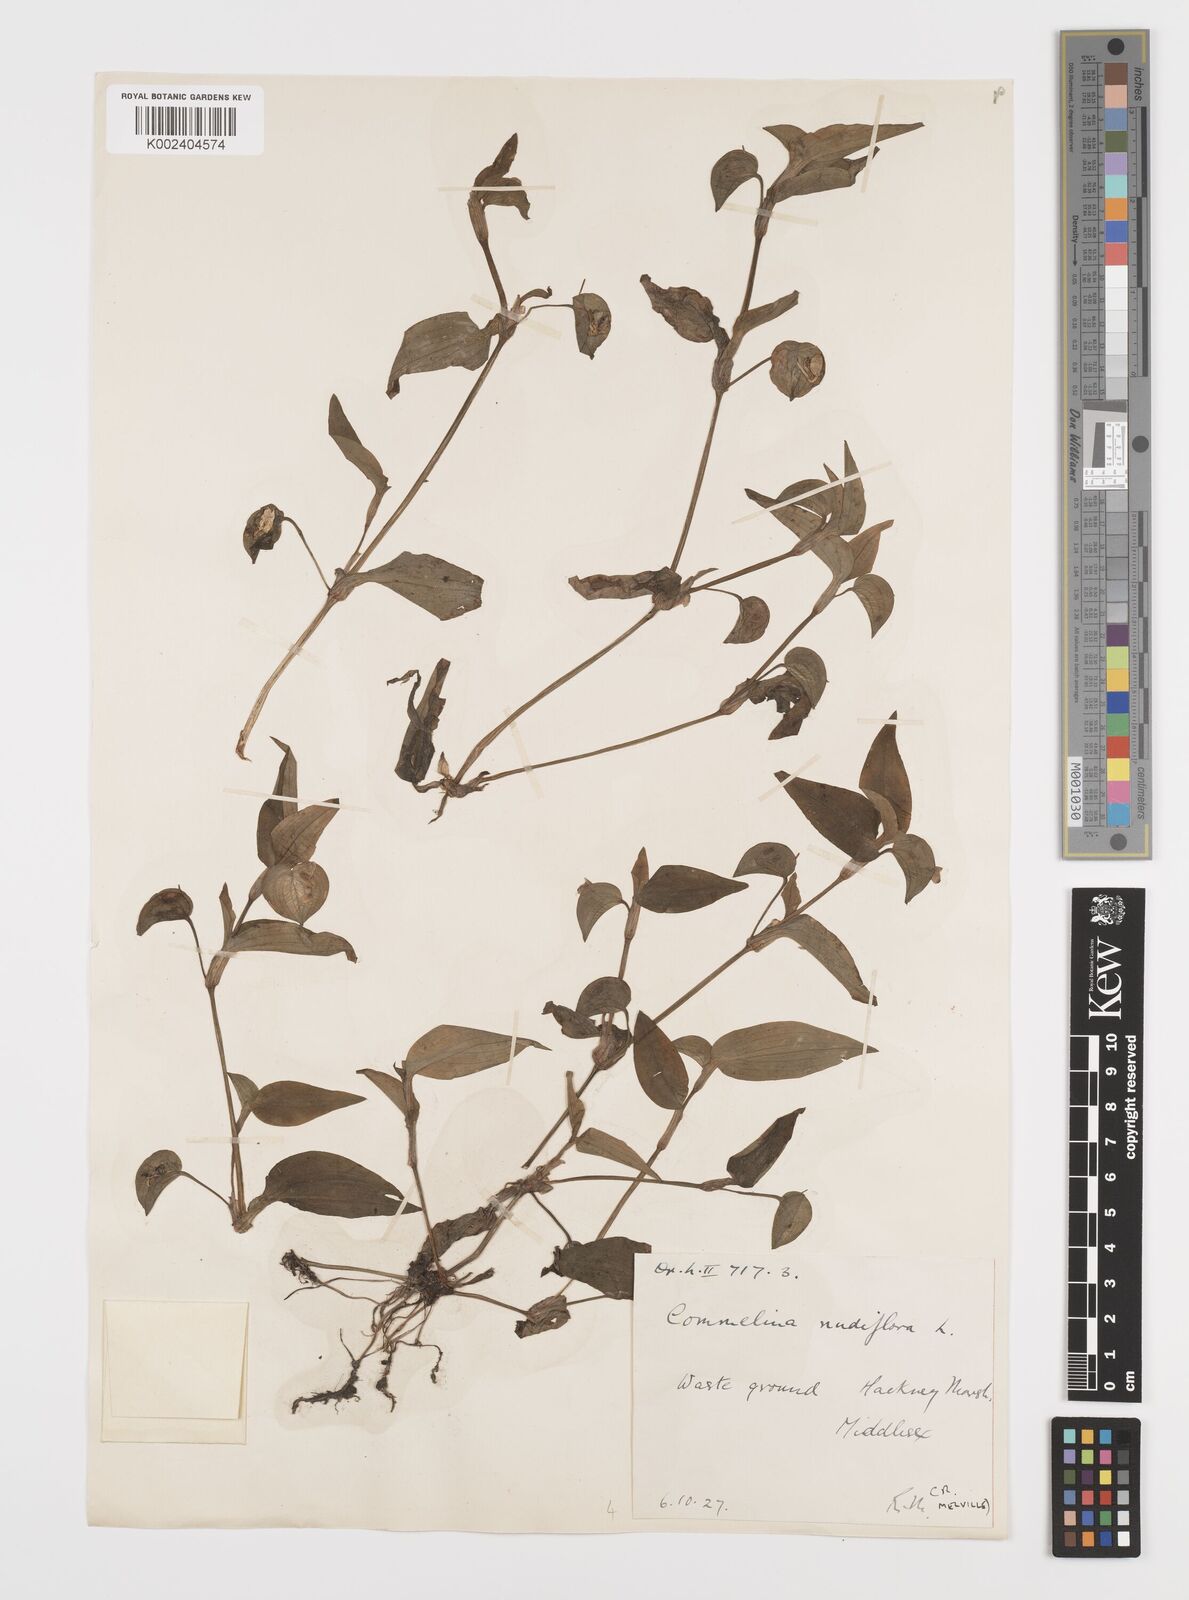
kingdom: Plantae
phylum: Tracheophyta
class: Liliopsida
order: Commelinales
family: Commelinaceae
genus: Murdannia
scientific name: Murdannia nudiflora
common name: Nakedstem dewflower
